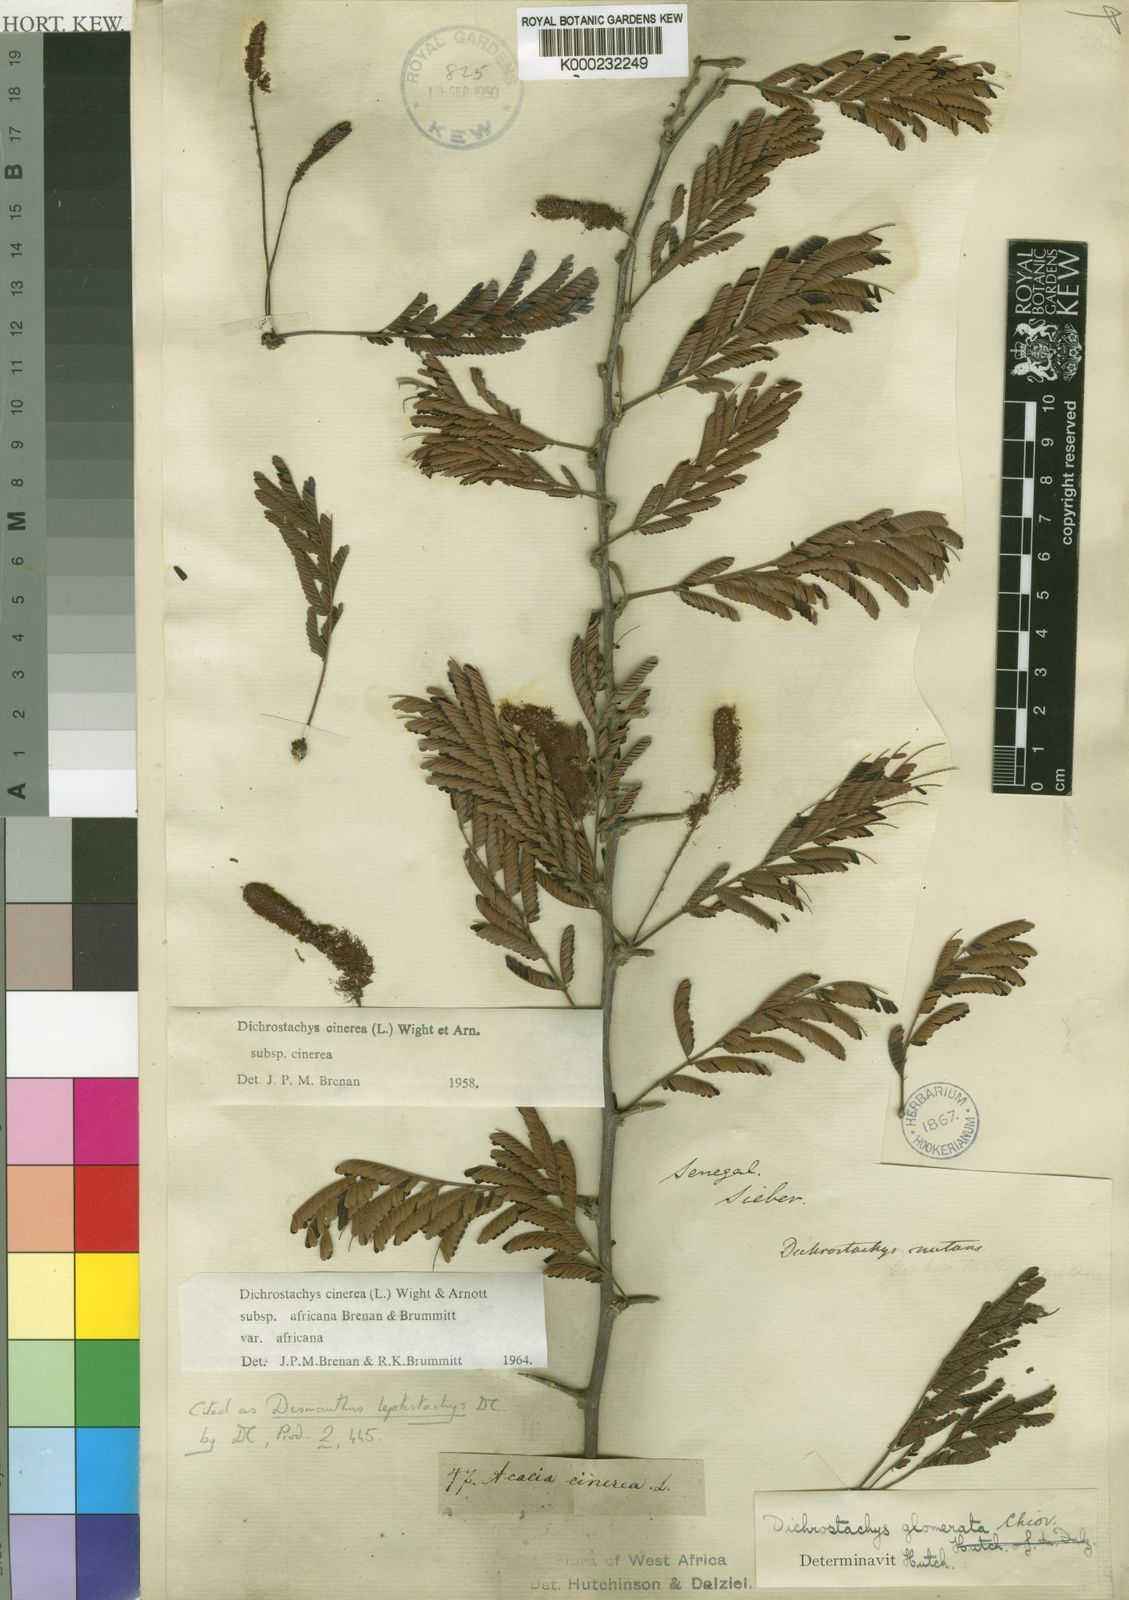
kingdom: Plantae
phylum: Tracheophyta
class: Magnoliopsida
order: Fabales
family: Fabaceae
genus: Dichrostachys
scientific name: Dichrostachys
